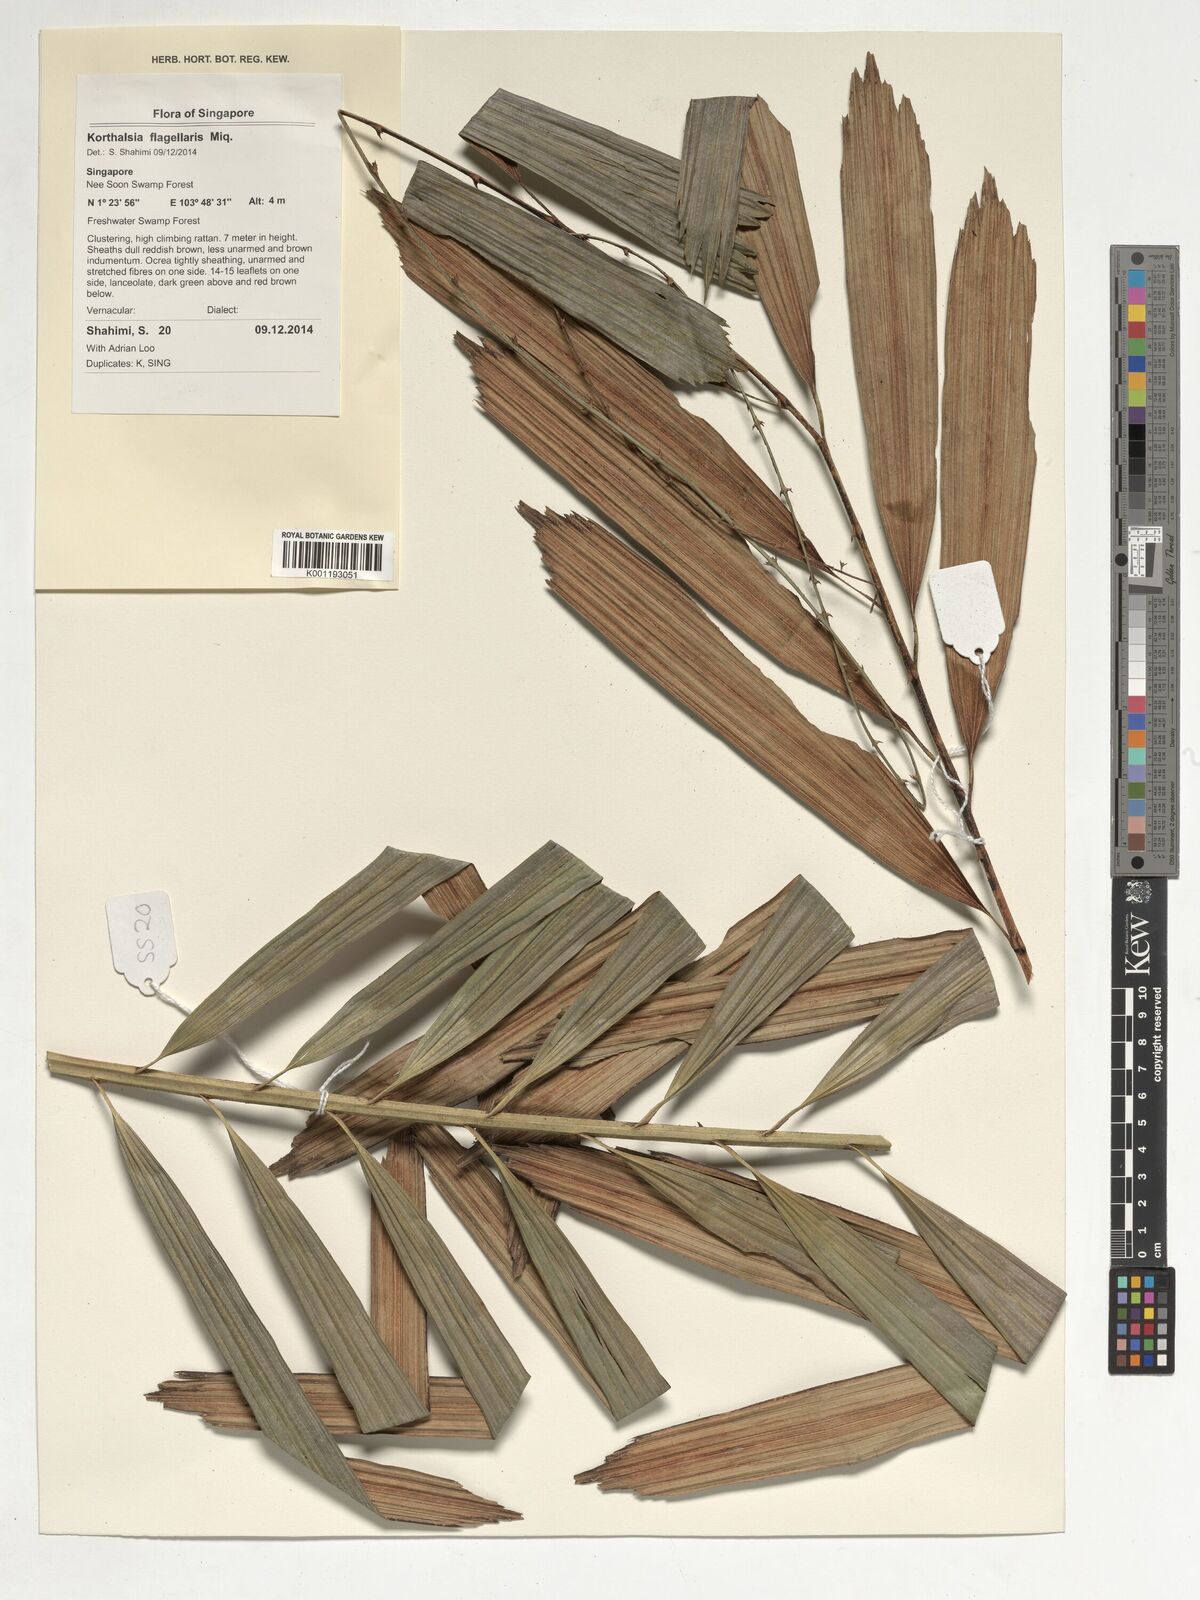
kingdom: Plantae
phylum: Tracheophyta
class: Liliopsida
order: Arecales
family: Arecaceae
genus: Korthalsia
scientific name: Korthalsia flagellaris
